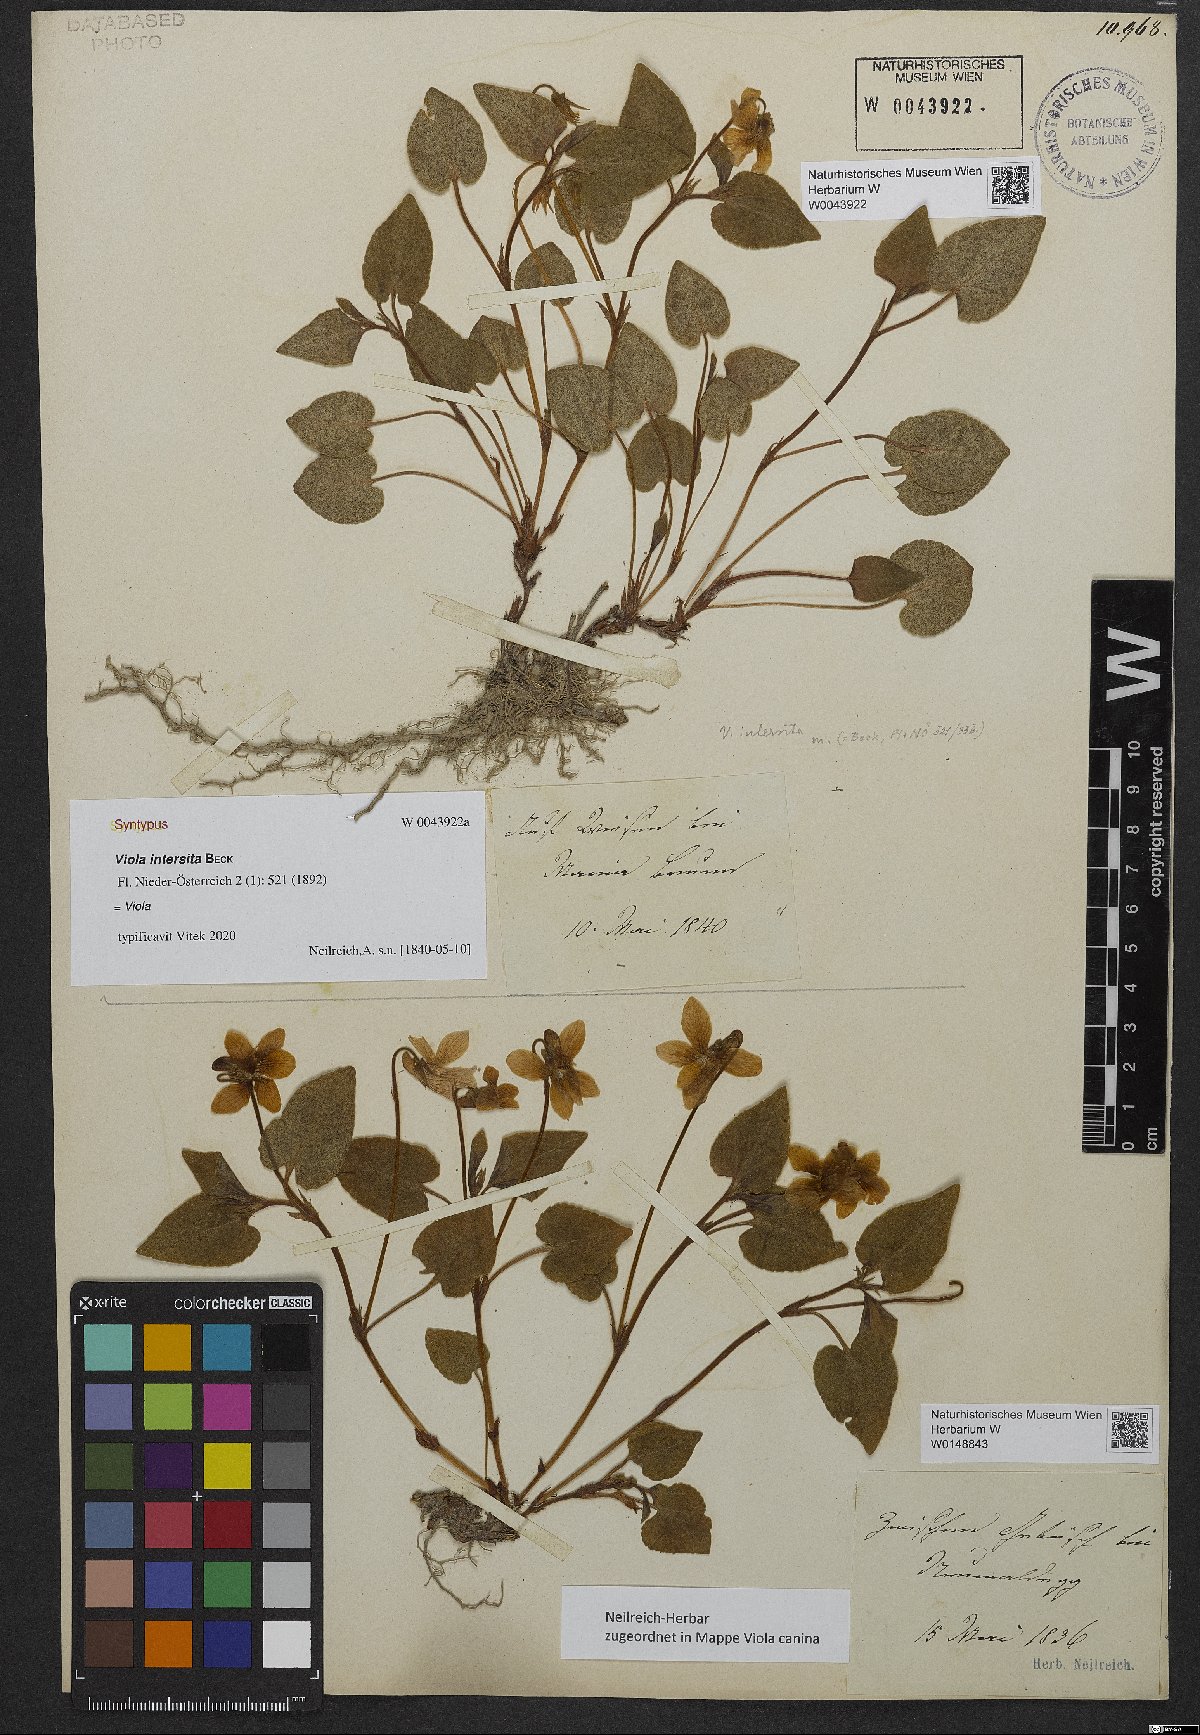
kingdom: Plantae
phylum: Tracheophyta
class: Magnoliopsida
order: Malpighiales
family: Violaceae
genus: Viola
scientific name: Viola canina
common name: Heath dog-violet
